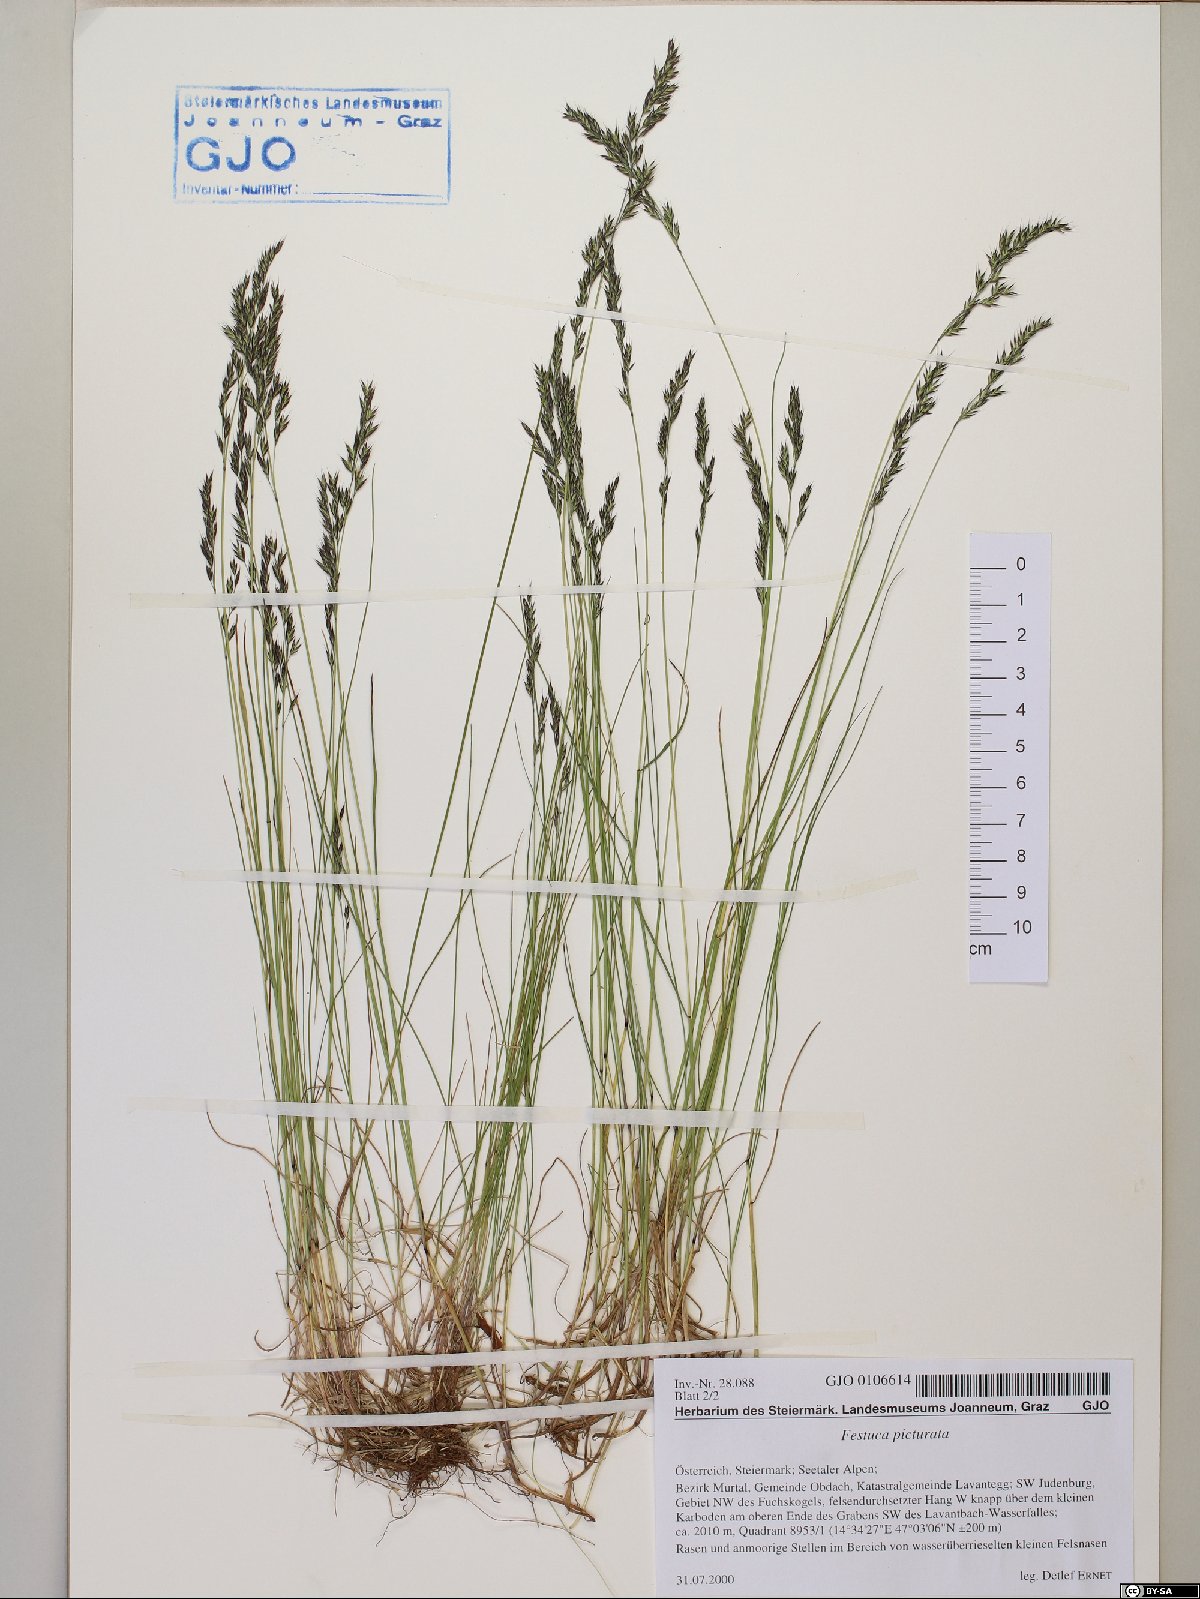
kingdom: Plantae
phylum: Tracheophyta
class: Liliopsida
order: Poales
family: Poaceae
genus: Festuca
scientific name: Festuca picturata
